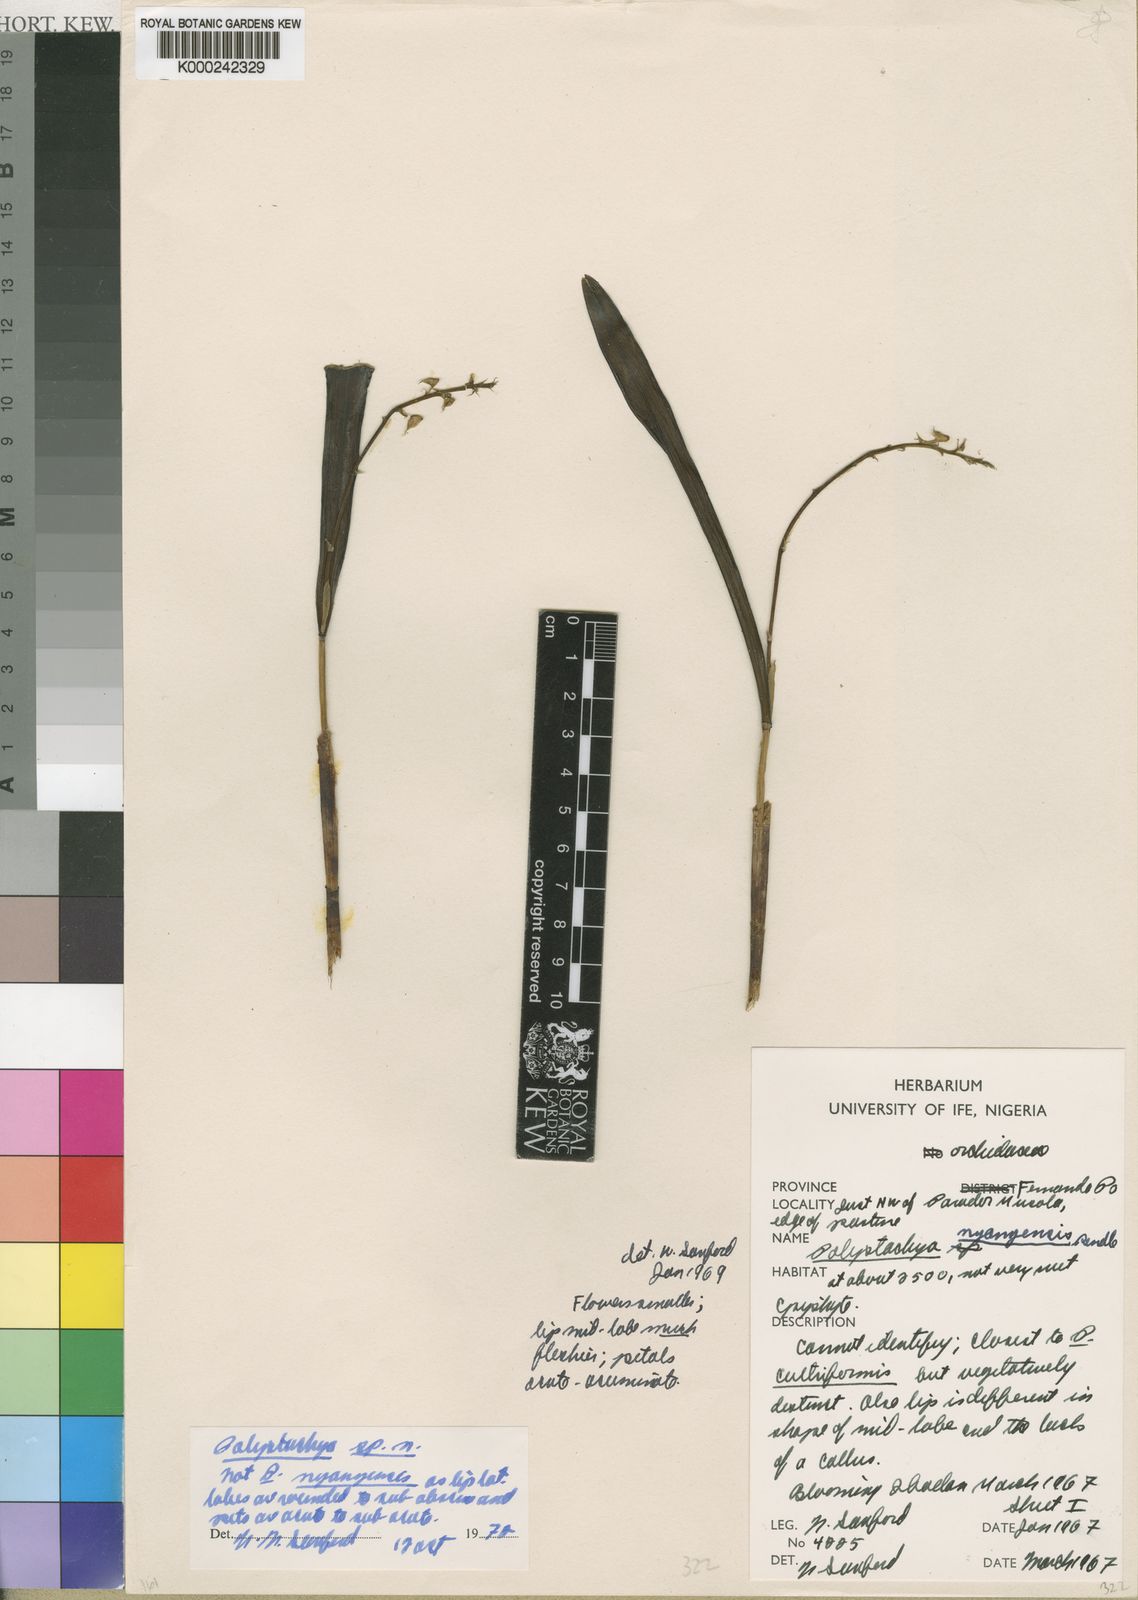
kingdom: Plantae
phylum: Tracheophyta
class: Liliopsida
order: Asparagales
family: Orchidaceae
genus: Polystachya
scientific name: Polystachya carnosa
